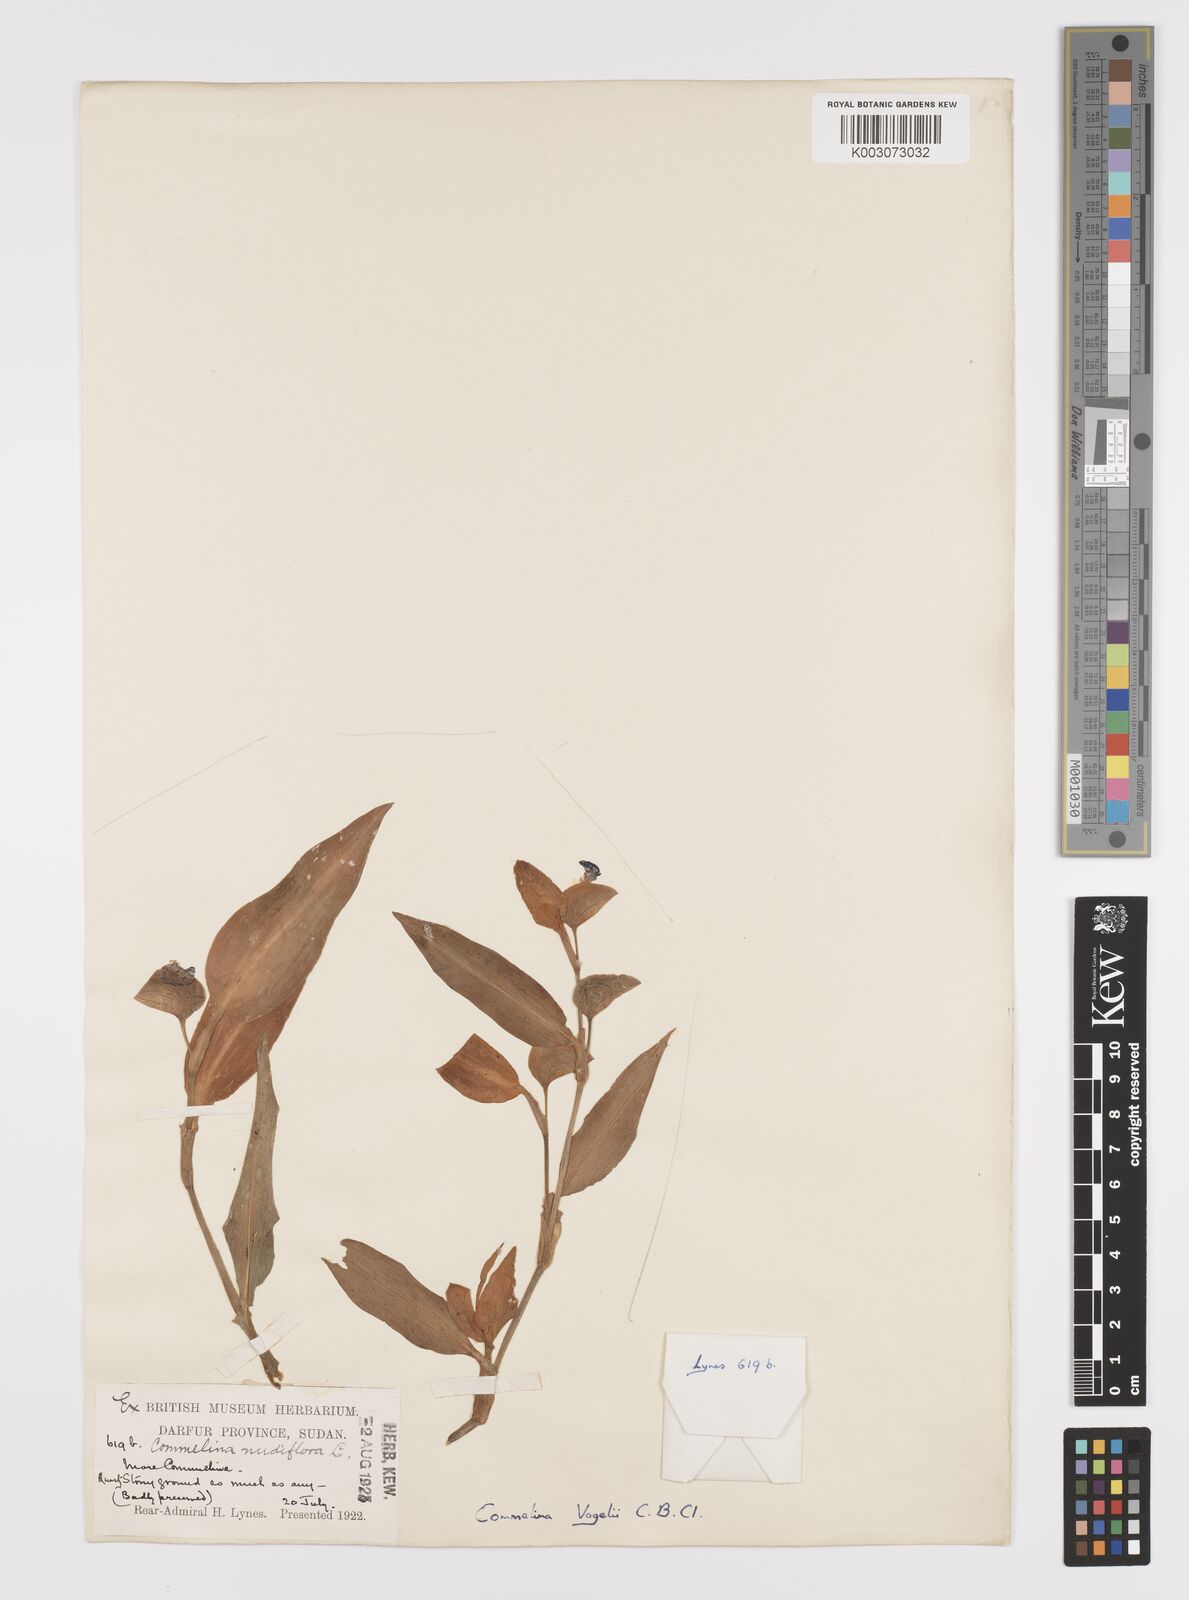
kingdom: Plantae
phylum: Tracheophyta
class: Liliopsida
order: Commelinales
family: Commelinaceae
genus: Commelina
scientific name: Commelina bracteosa
